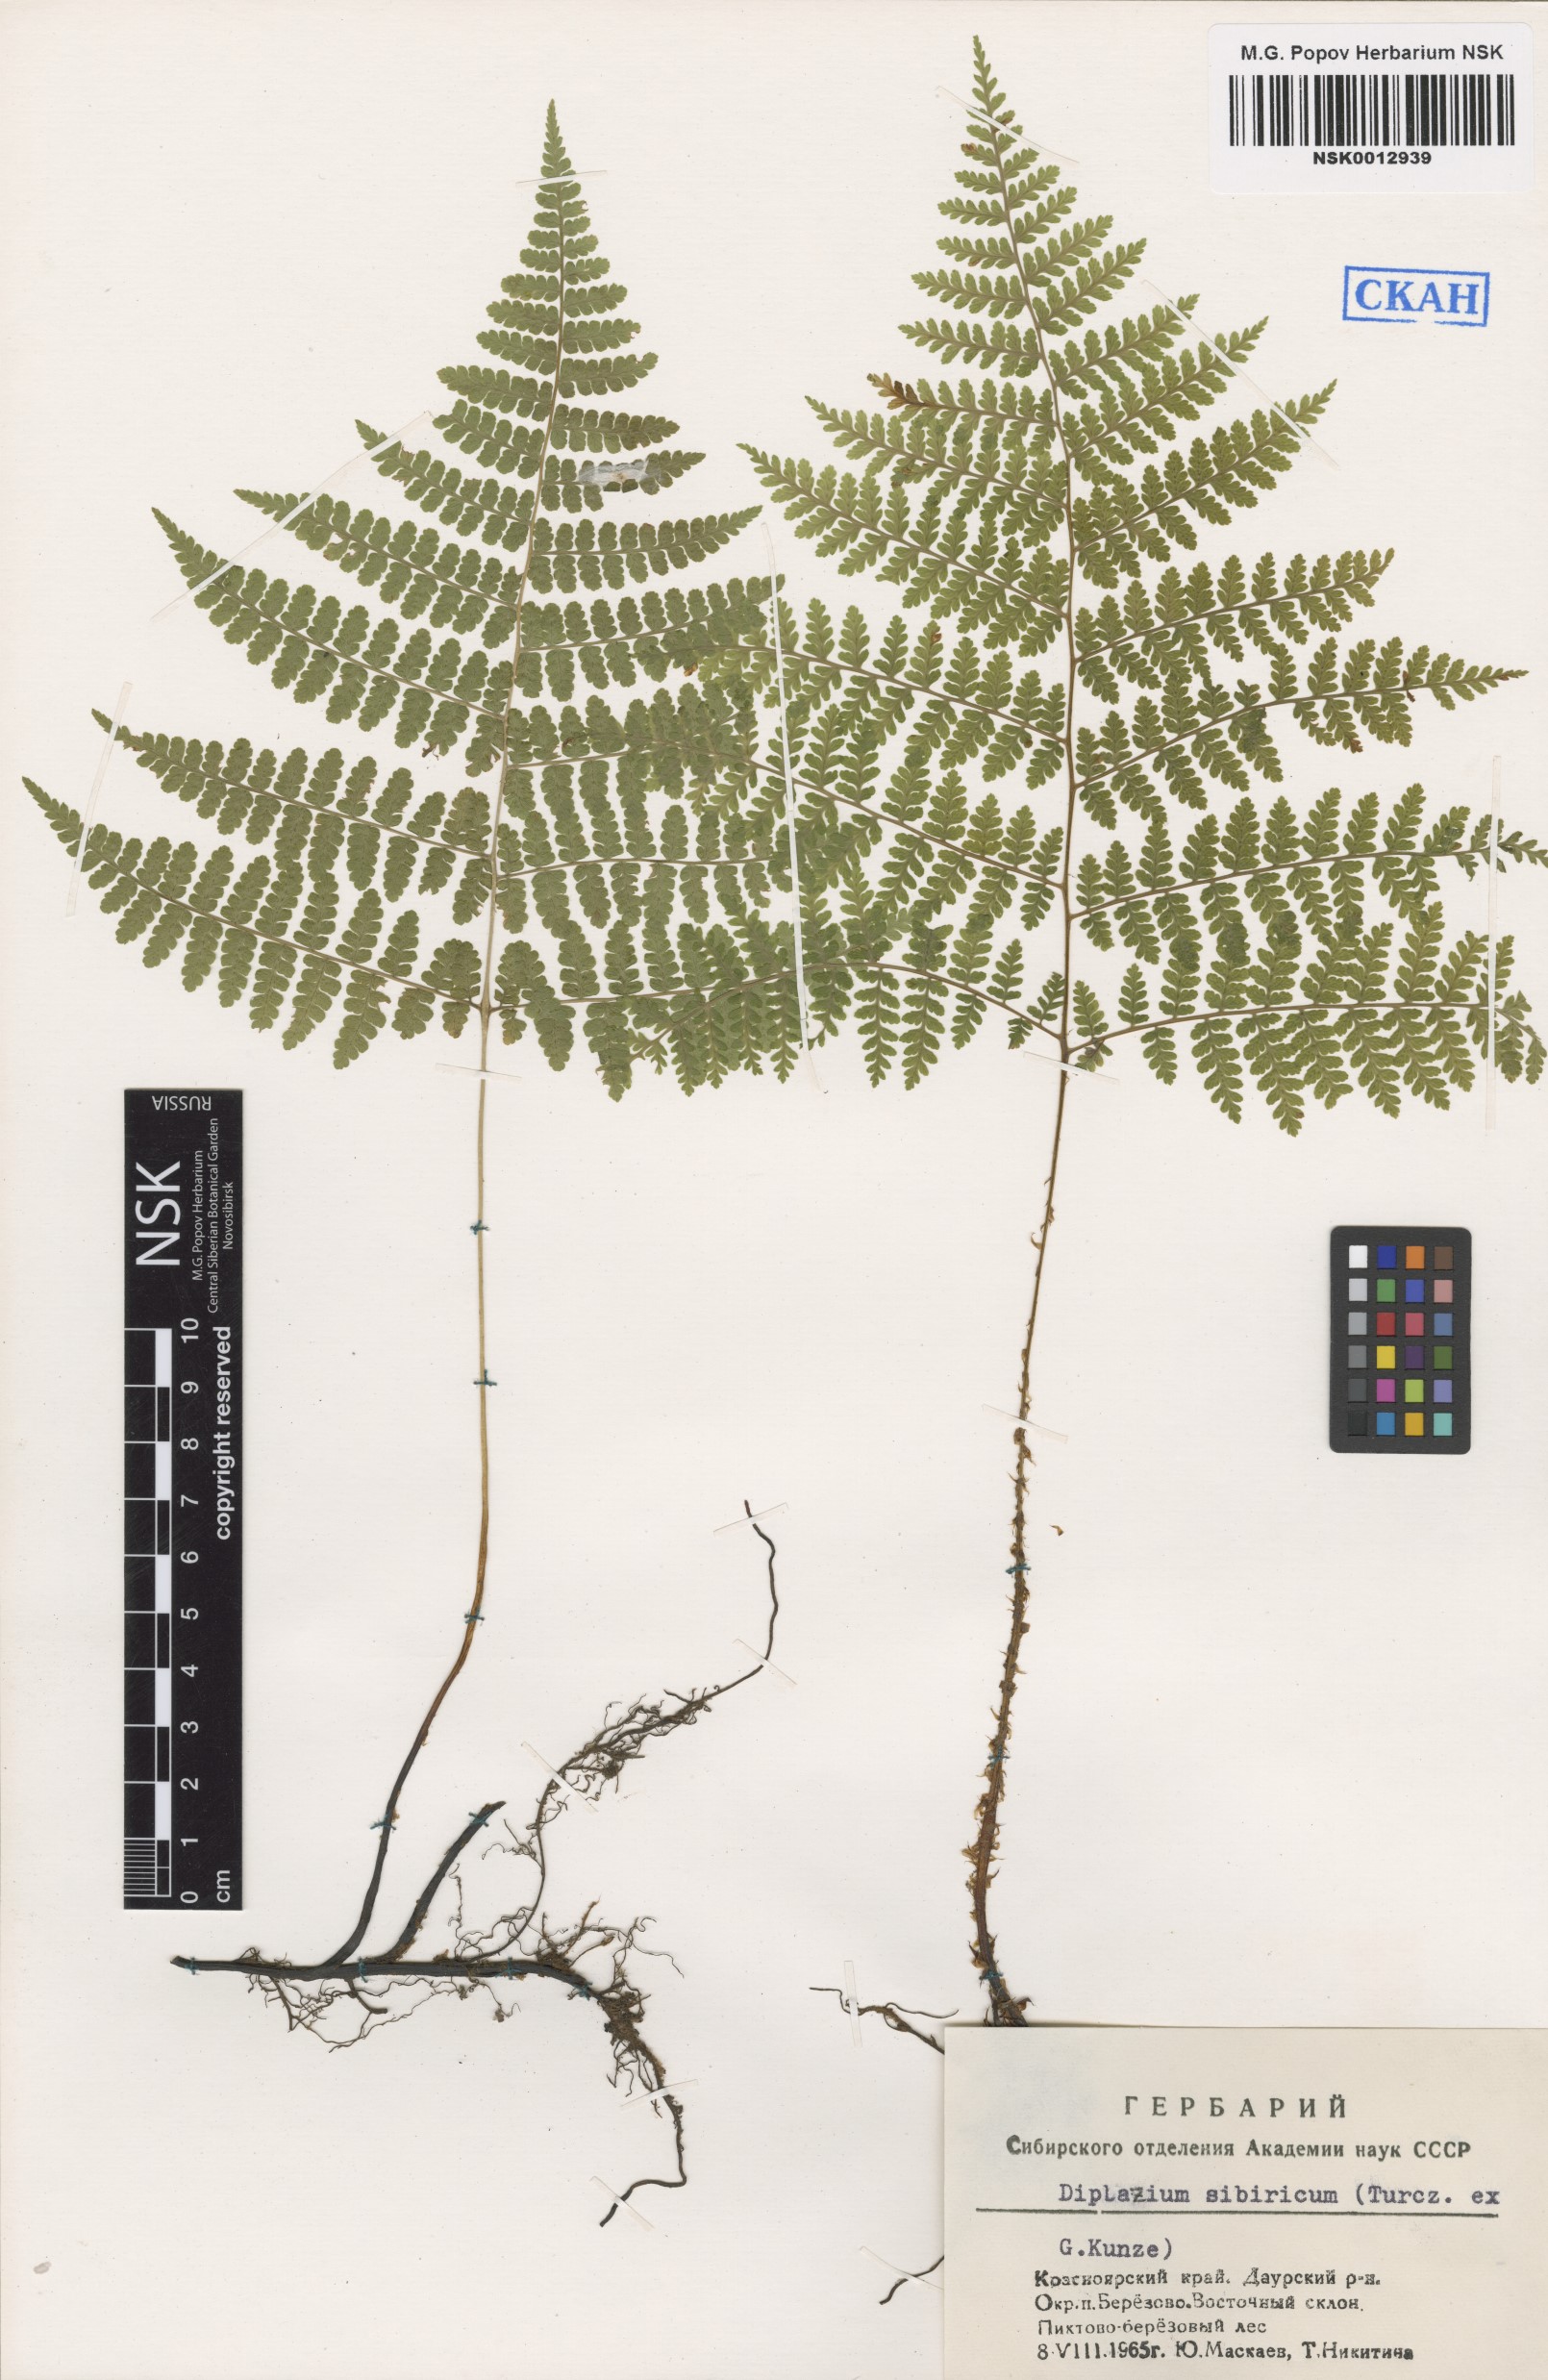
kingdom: Plantae
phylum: Tracheophyta
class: Polypodiopsida
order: Polypodiales
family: Athyriaceae
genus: Diplazium
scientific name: Diplazium sibiricum
